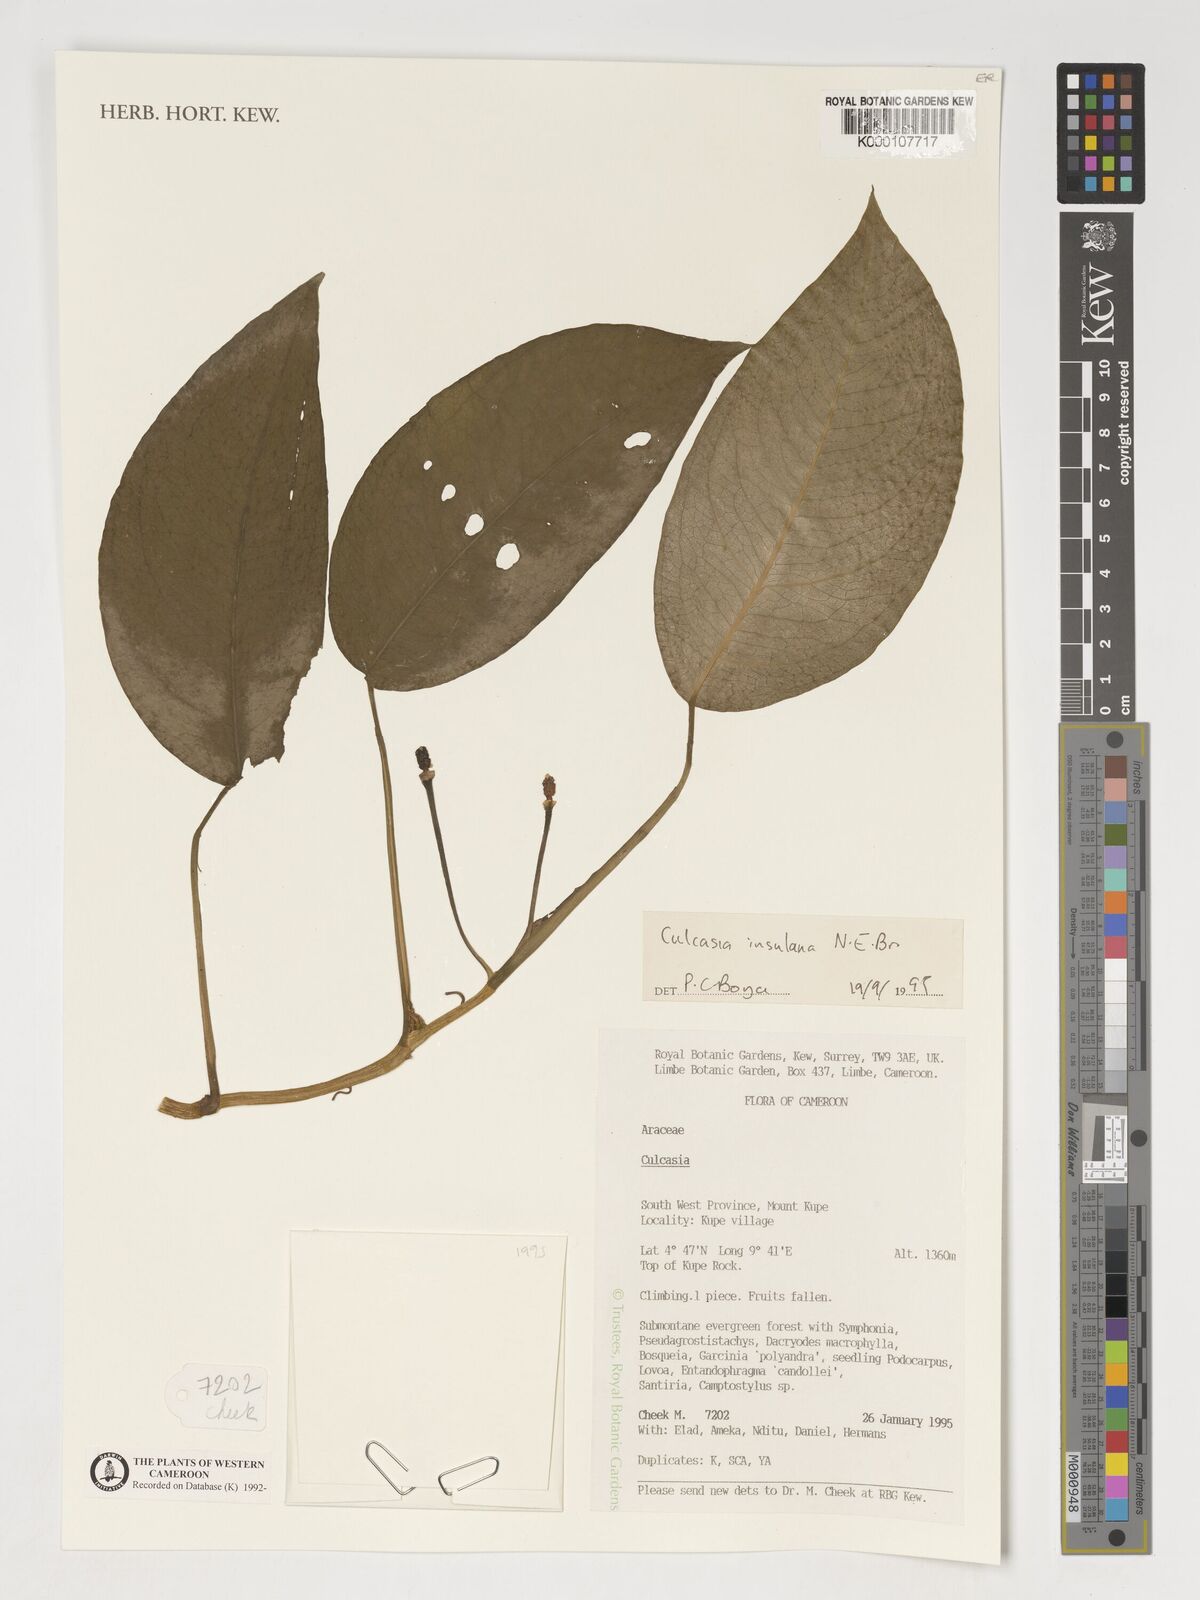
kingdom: Plantae
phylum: Tracheophyta
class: Liliopsida
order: Alismatales
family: Araceae
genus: Culcasia
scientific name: Culcasia insulana
